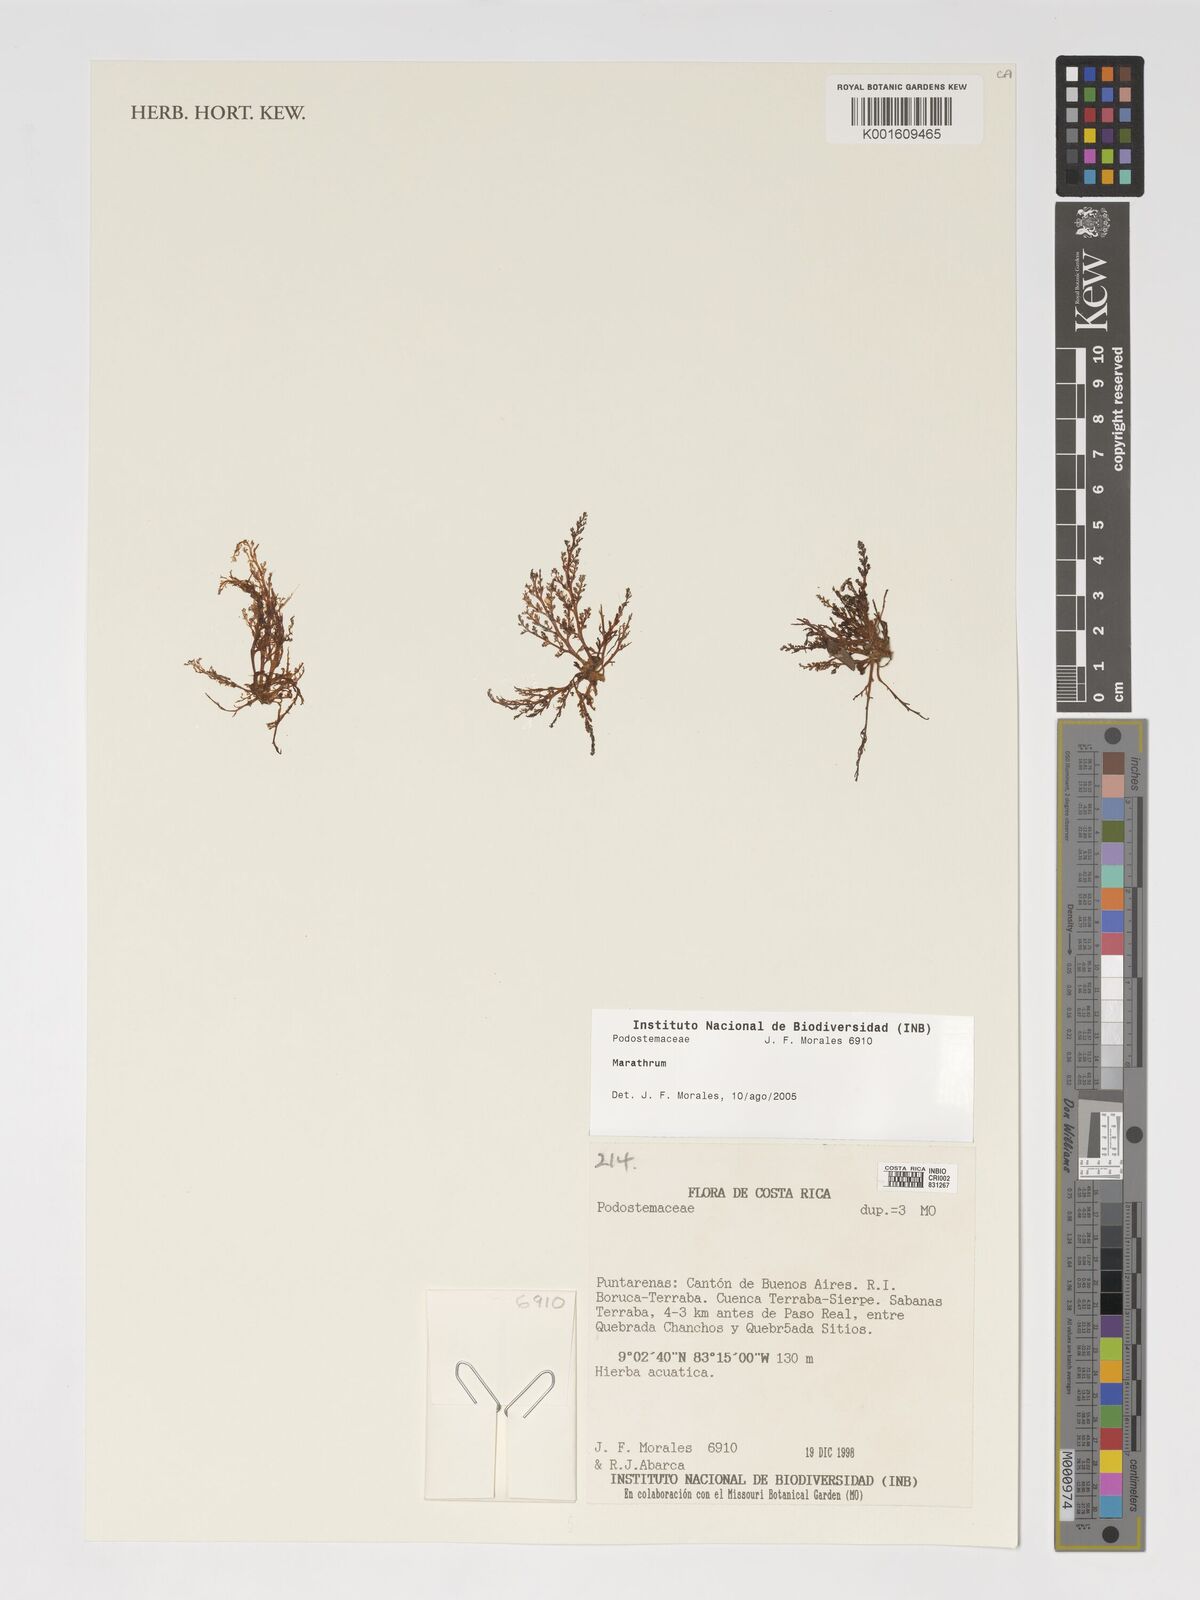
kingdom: Plantae
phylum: Tracheophyta
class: Magnoliopsida
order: Malpighiales
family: Podostemaceae
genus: Marathrum
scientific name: Marathrum
